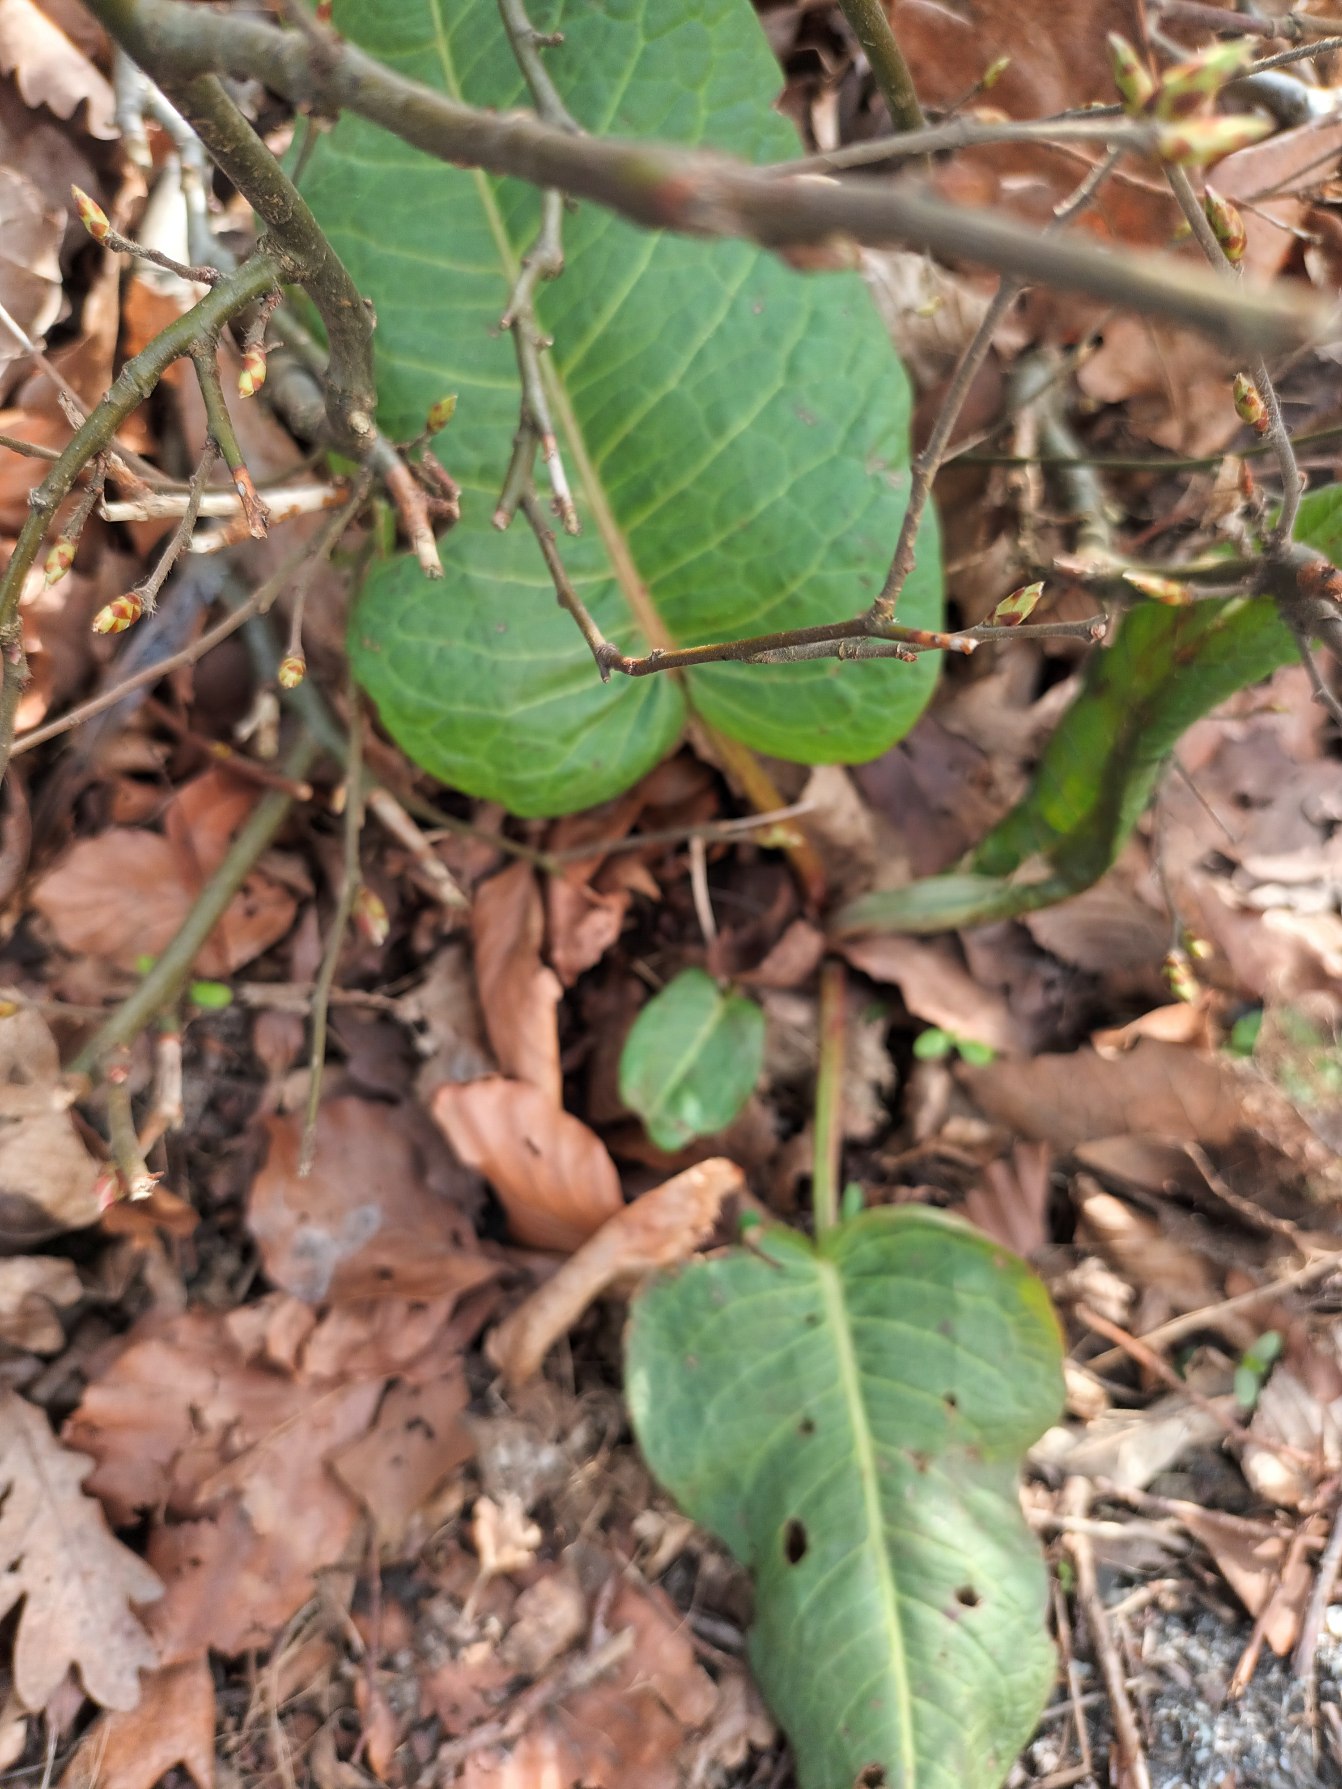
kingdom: Plantae
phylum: Tracheophyta
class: Magnoliopsida
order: Caryophyllales
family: Polygonaceae
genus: Rumex
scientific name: Rumex obtusifolius
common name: Butbladet skræppe
